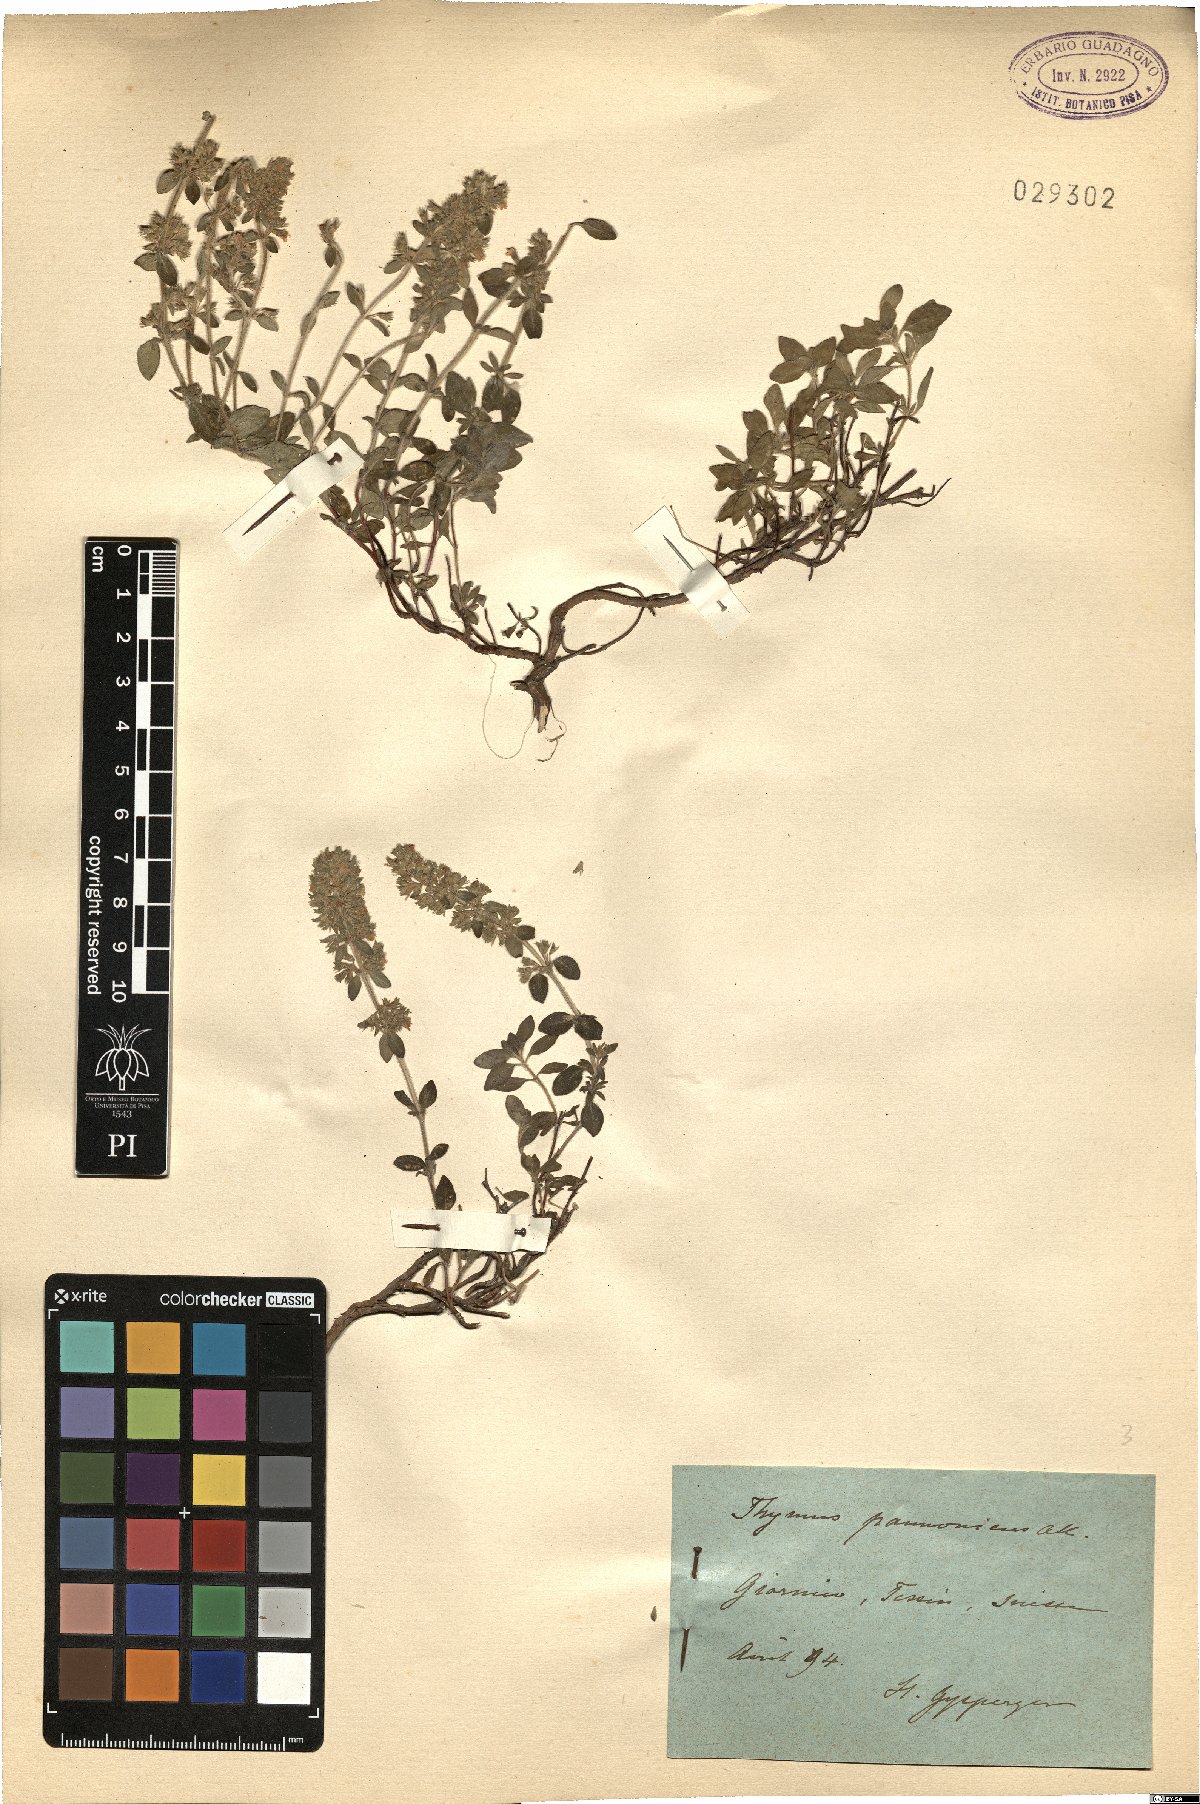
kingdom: Plantae
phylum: Tracheophyta
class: Magnoliopsida
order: Lamiales
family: Lamiaceae
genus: Thymus
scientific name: Thymus pannonicus
